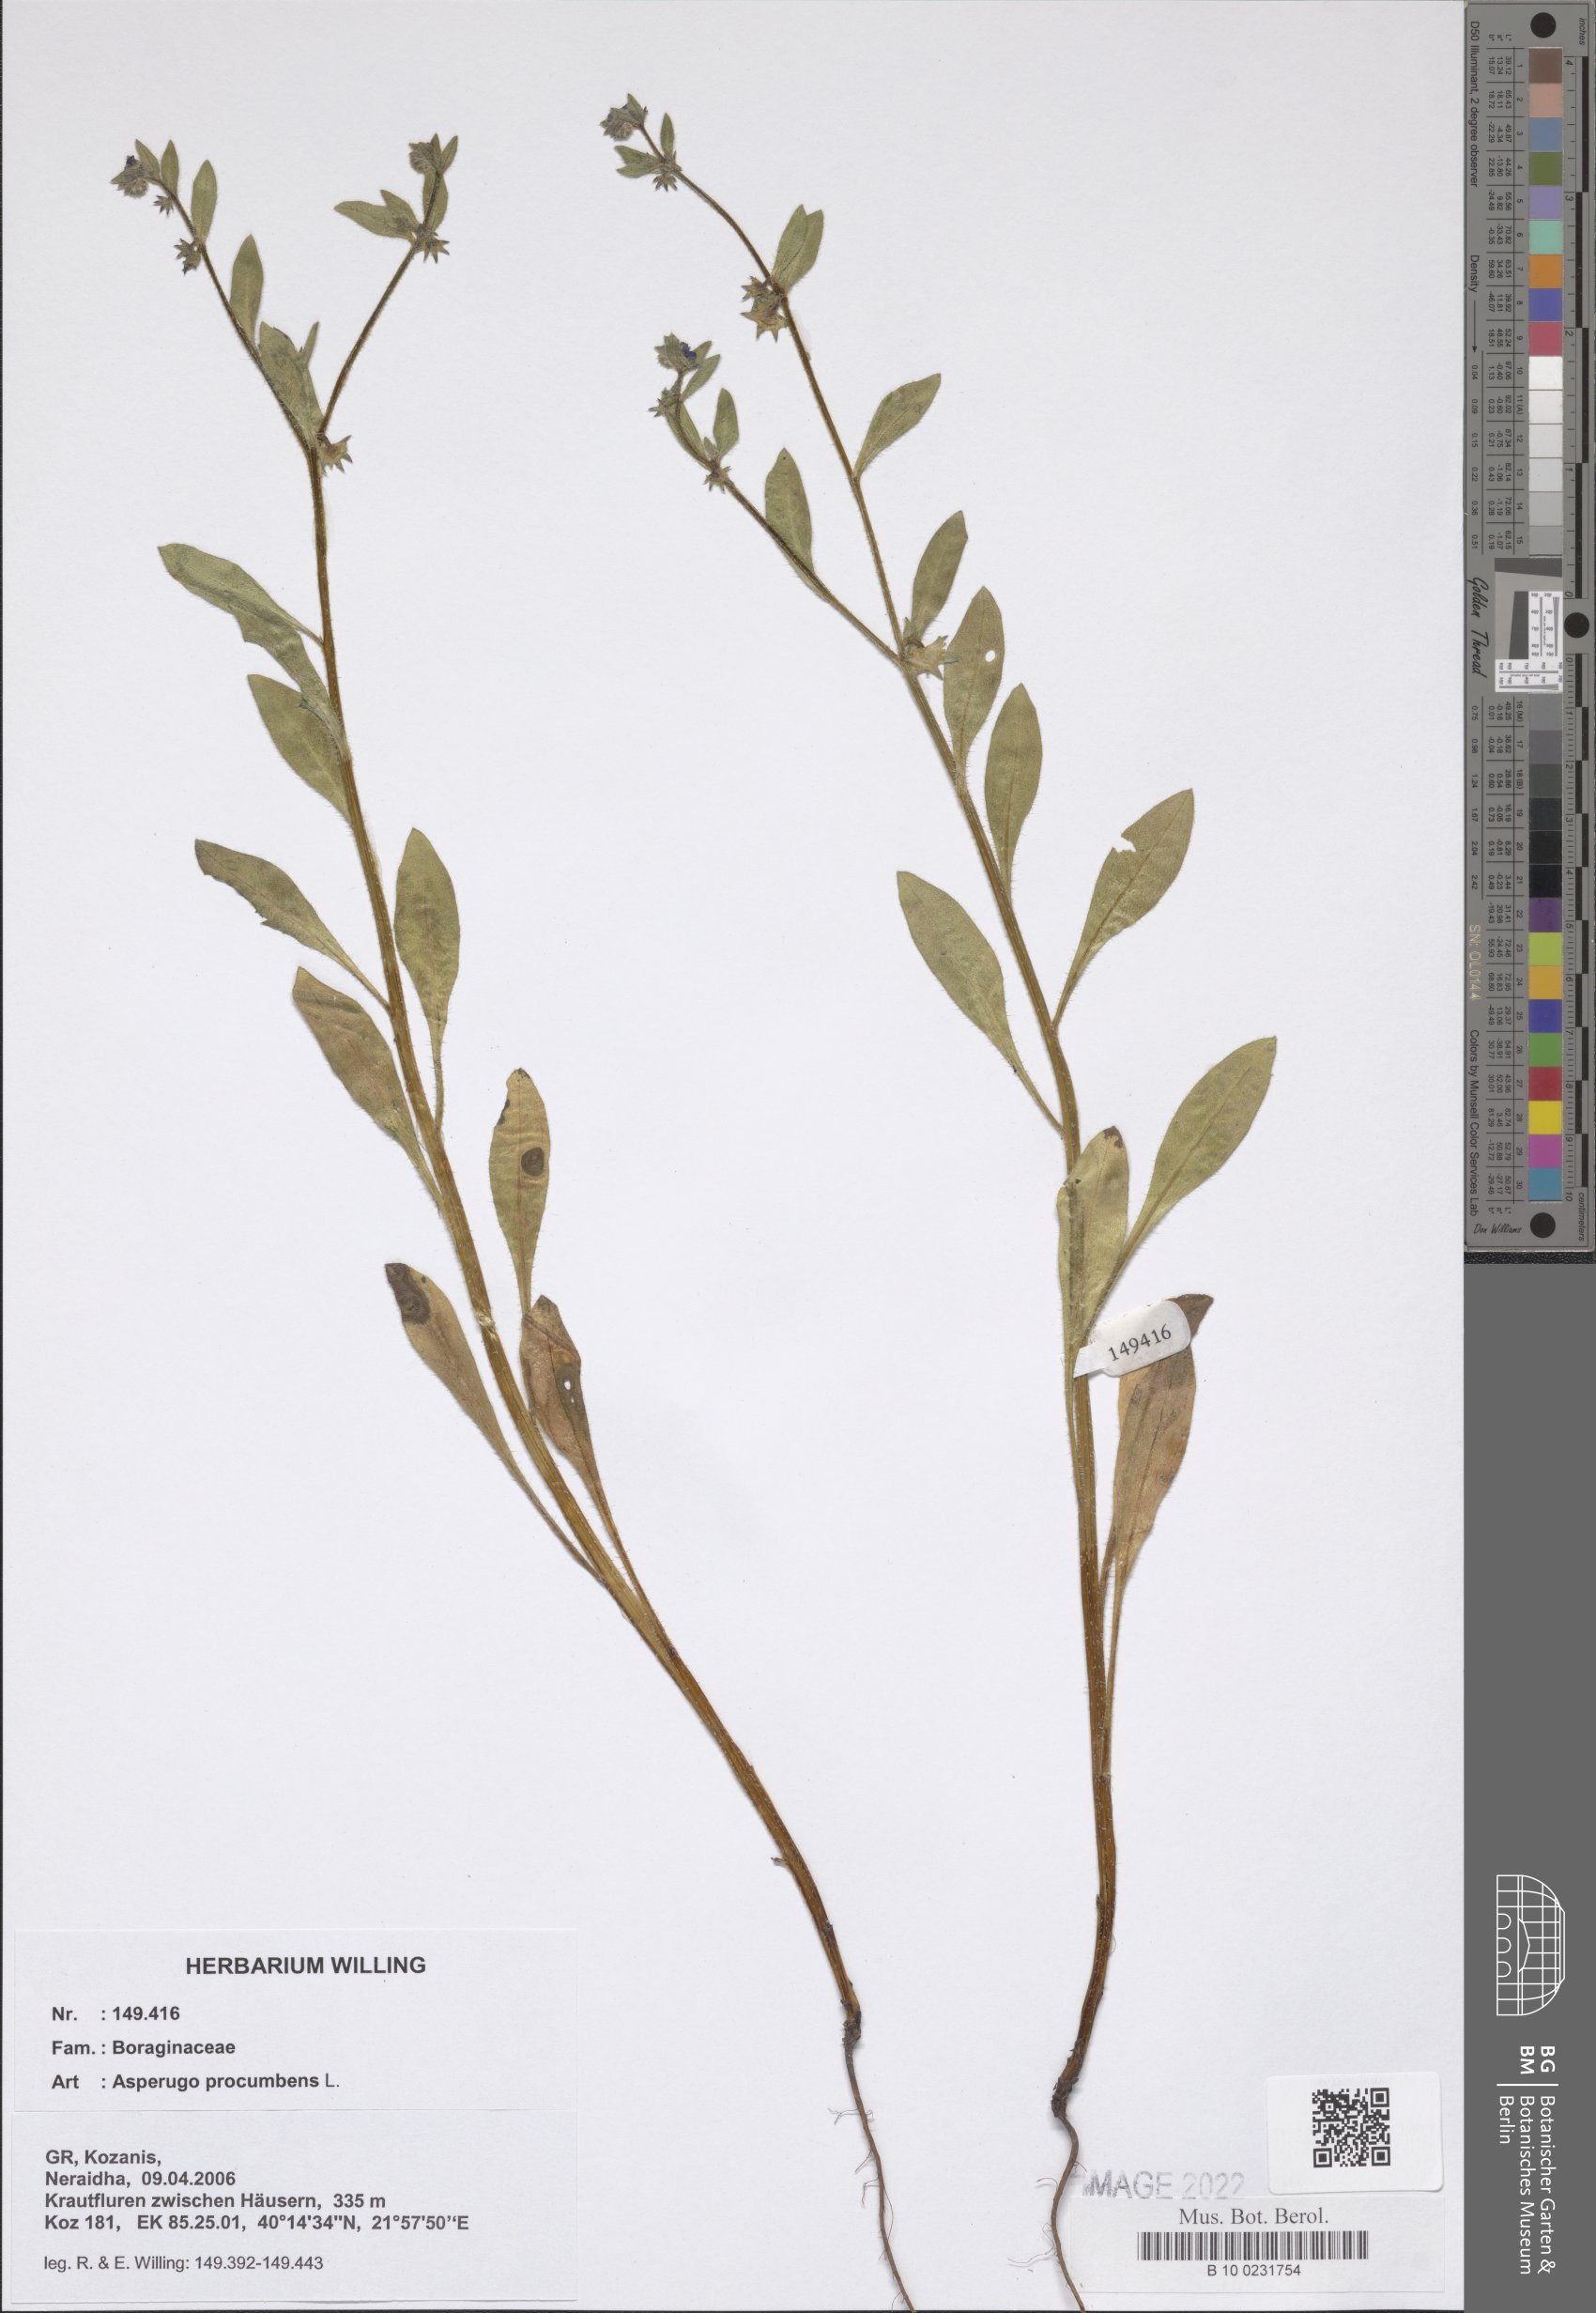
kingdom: Plantae
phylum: Tracheophyta
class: Magnoliopsida
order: Boraginales
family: Boraginaceae
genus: Asperugo
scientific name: Asperugo procumbens
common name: Madwort
